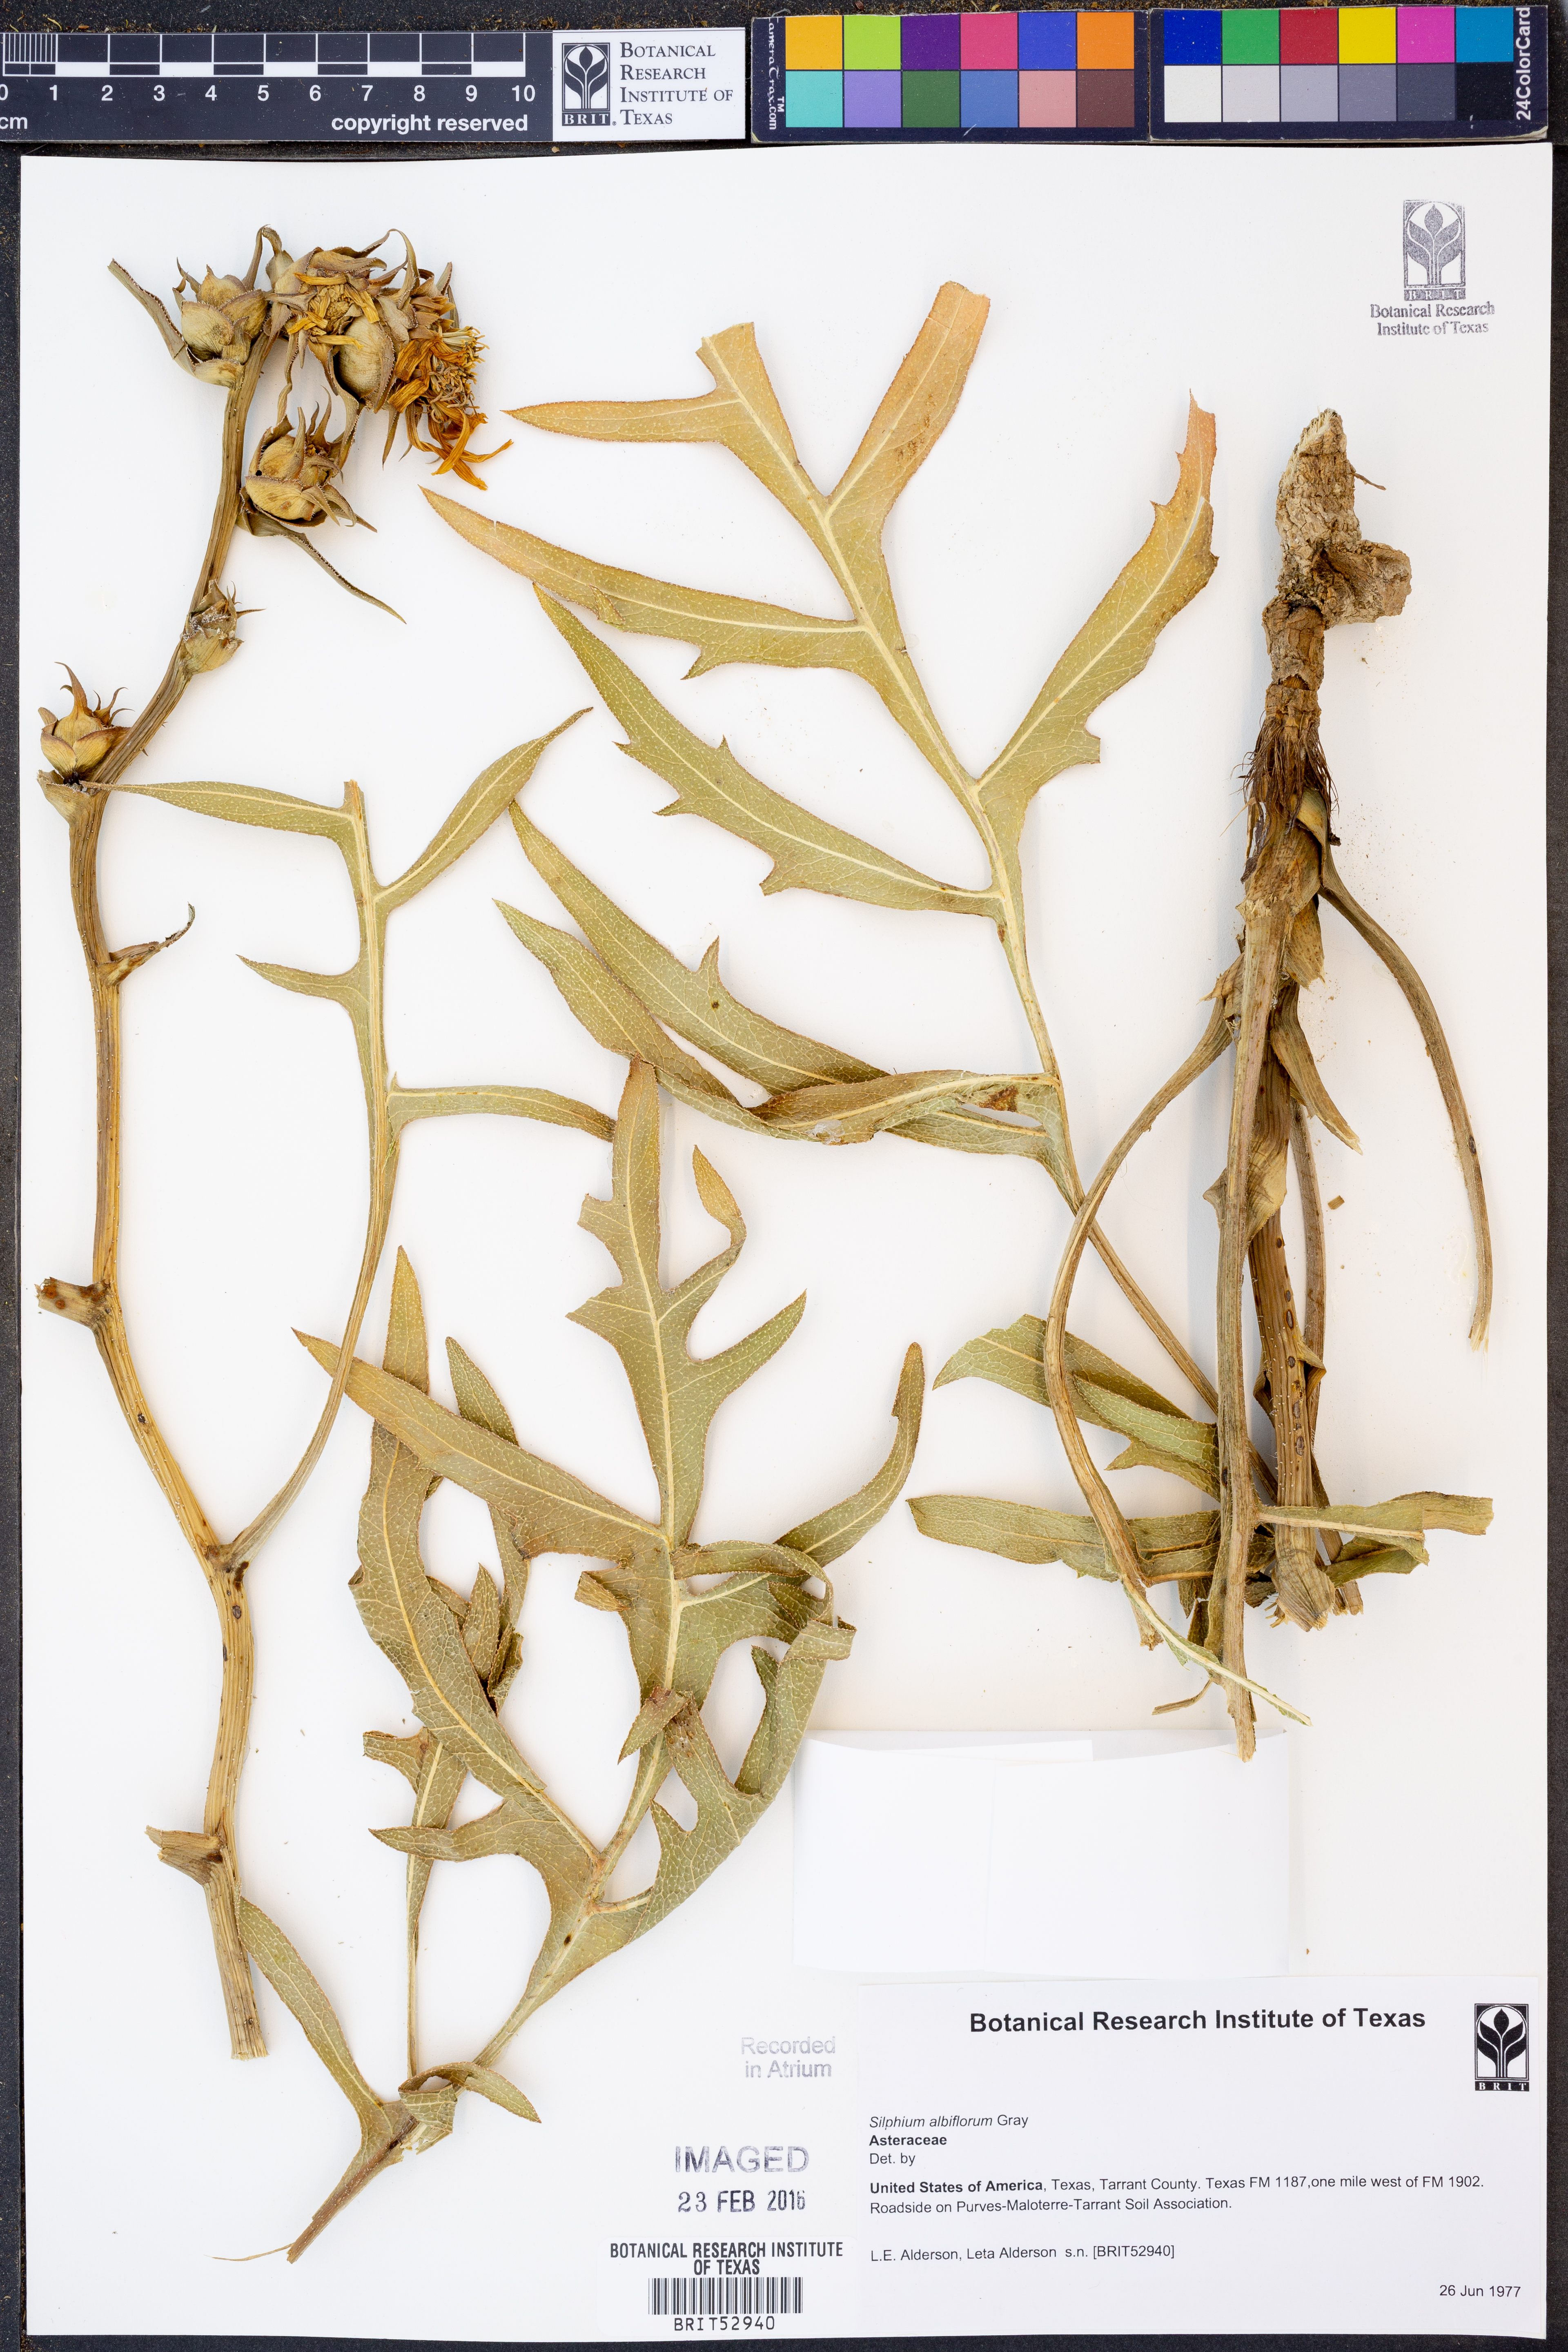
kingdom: Plantae
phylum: Tracheophyta
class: Magnoliopsida
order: Asterales
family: Asteraceae
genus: Silphium
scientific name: Silphium albiflorum
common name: White rosinweed
